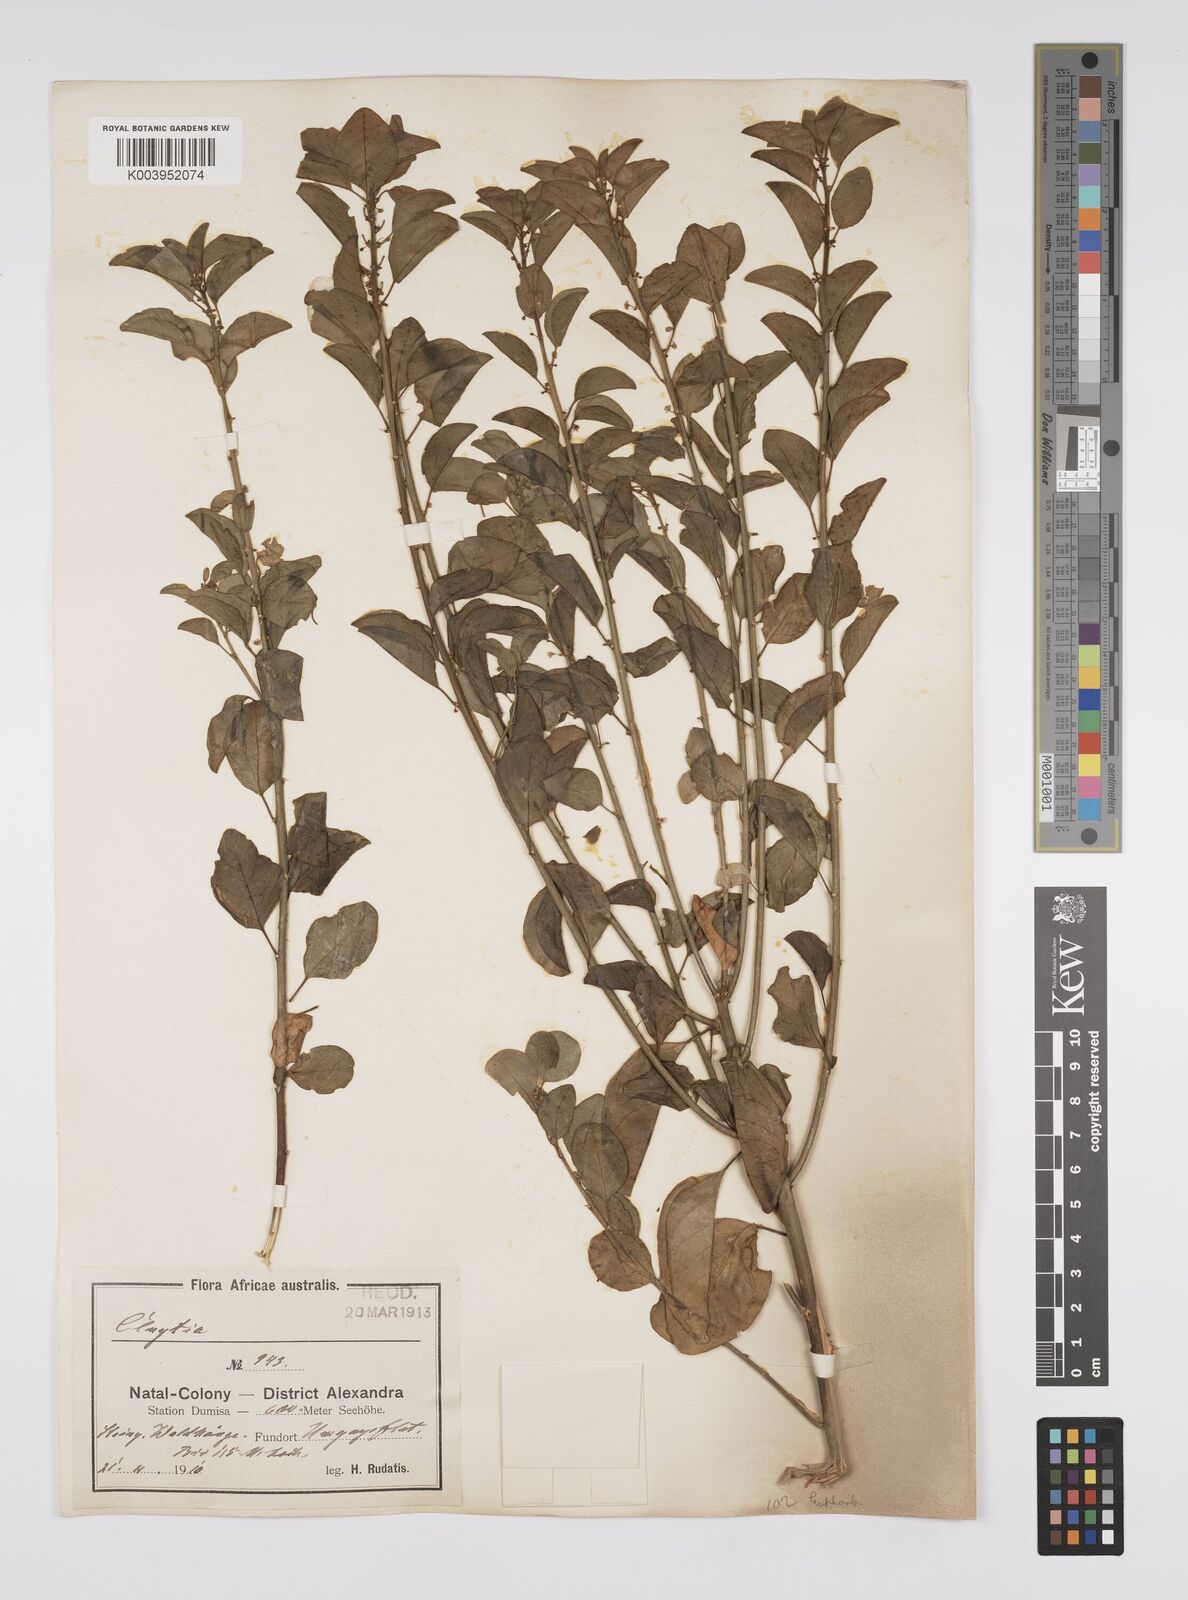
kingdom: Plantae
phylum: Tracheophyta
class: Magnoliopsida
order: Malpighiales
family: Peraceae
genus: Clutia
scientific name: Clutia
